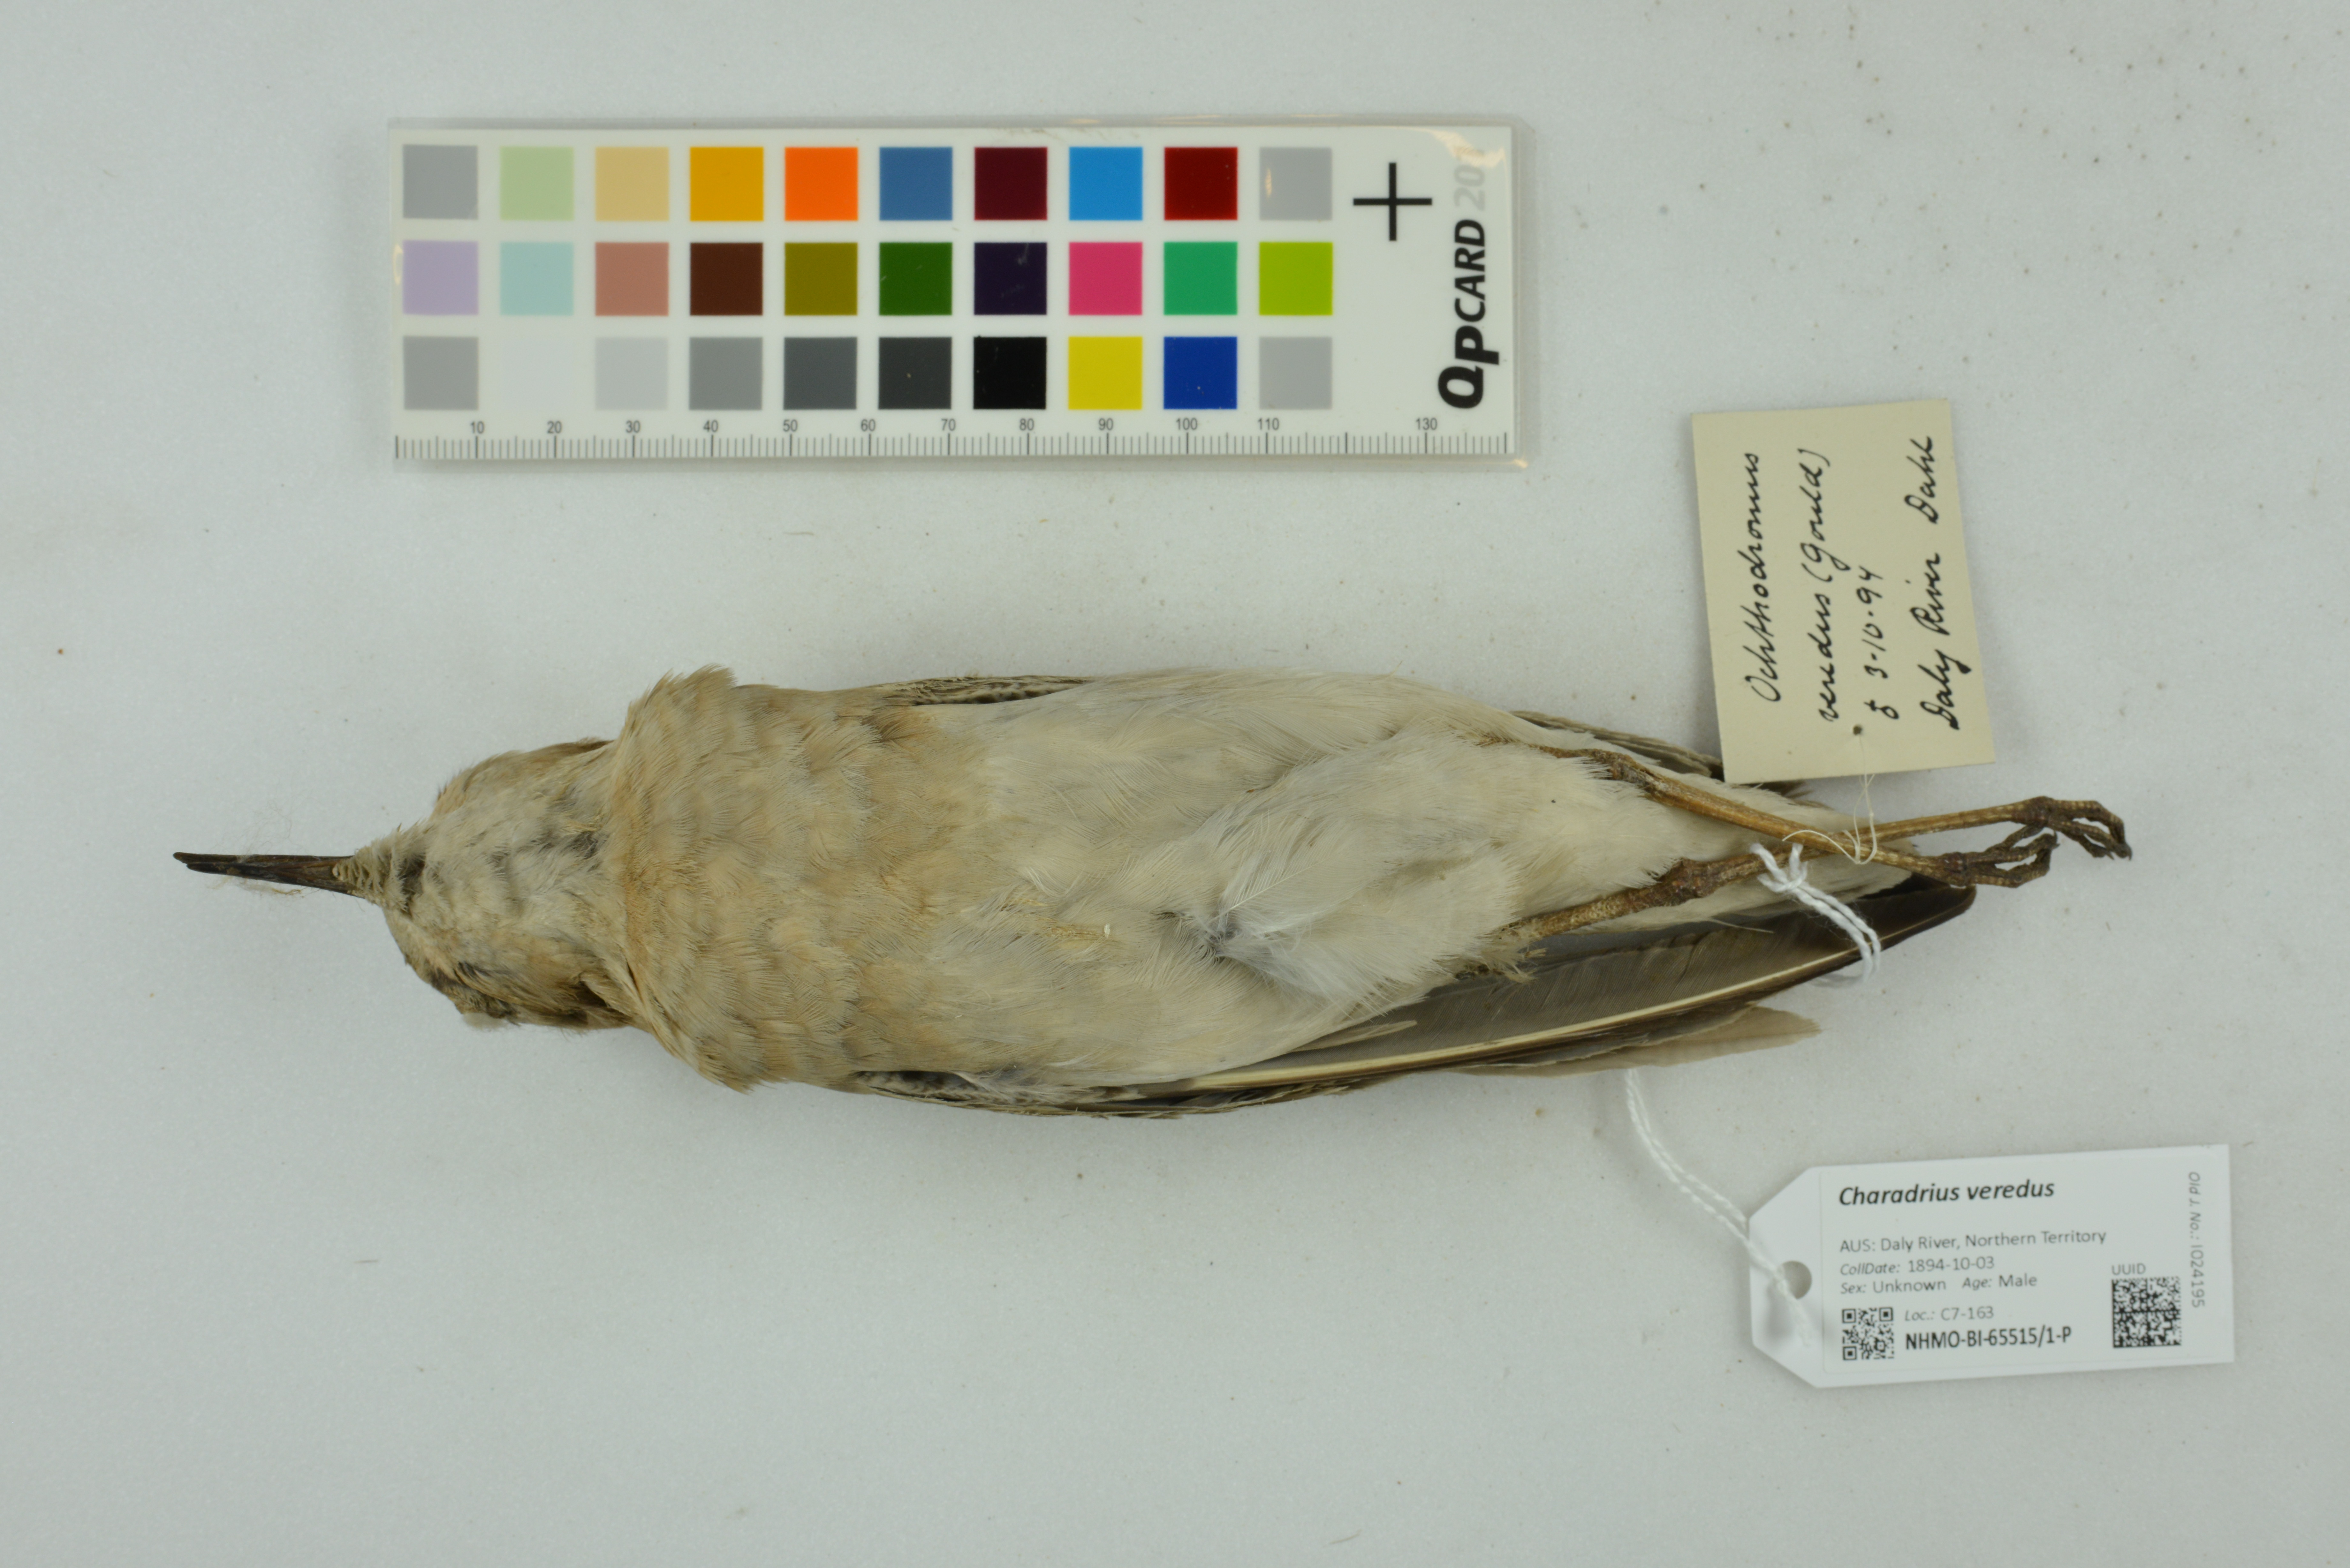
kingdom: Animalia
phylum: Chordata
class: Aves
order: Charadriiformes
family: Charadriidae
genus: Charadrius
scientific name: Charadrius veredus
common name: Oriental plover
